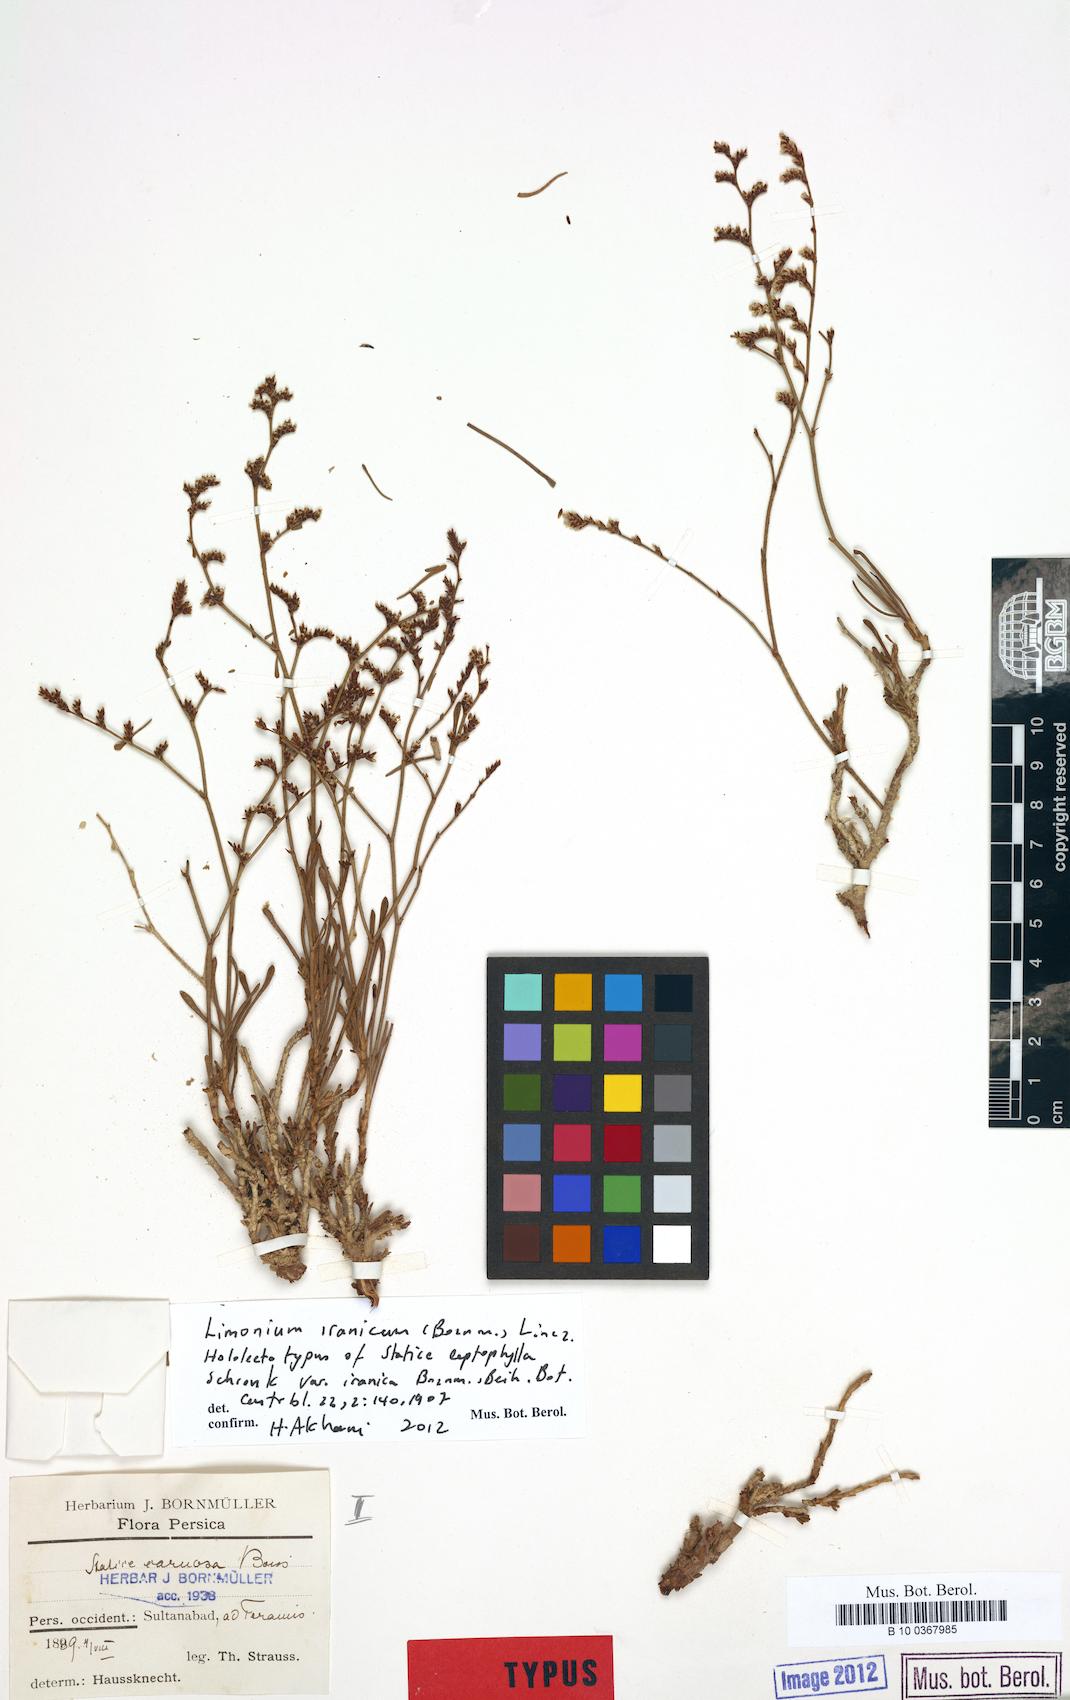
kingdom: Plantae
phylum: Tracheophyta
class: Magnoliopsida
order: Caryophyllales
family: Plumbaginaceae
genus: Limonium
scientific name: Limonium iranicum
